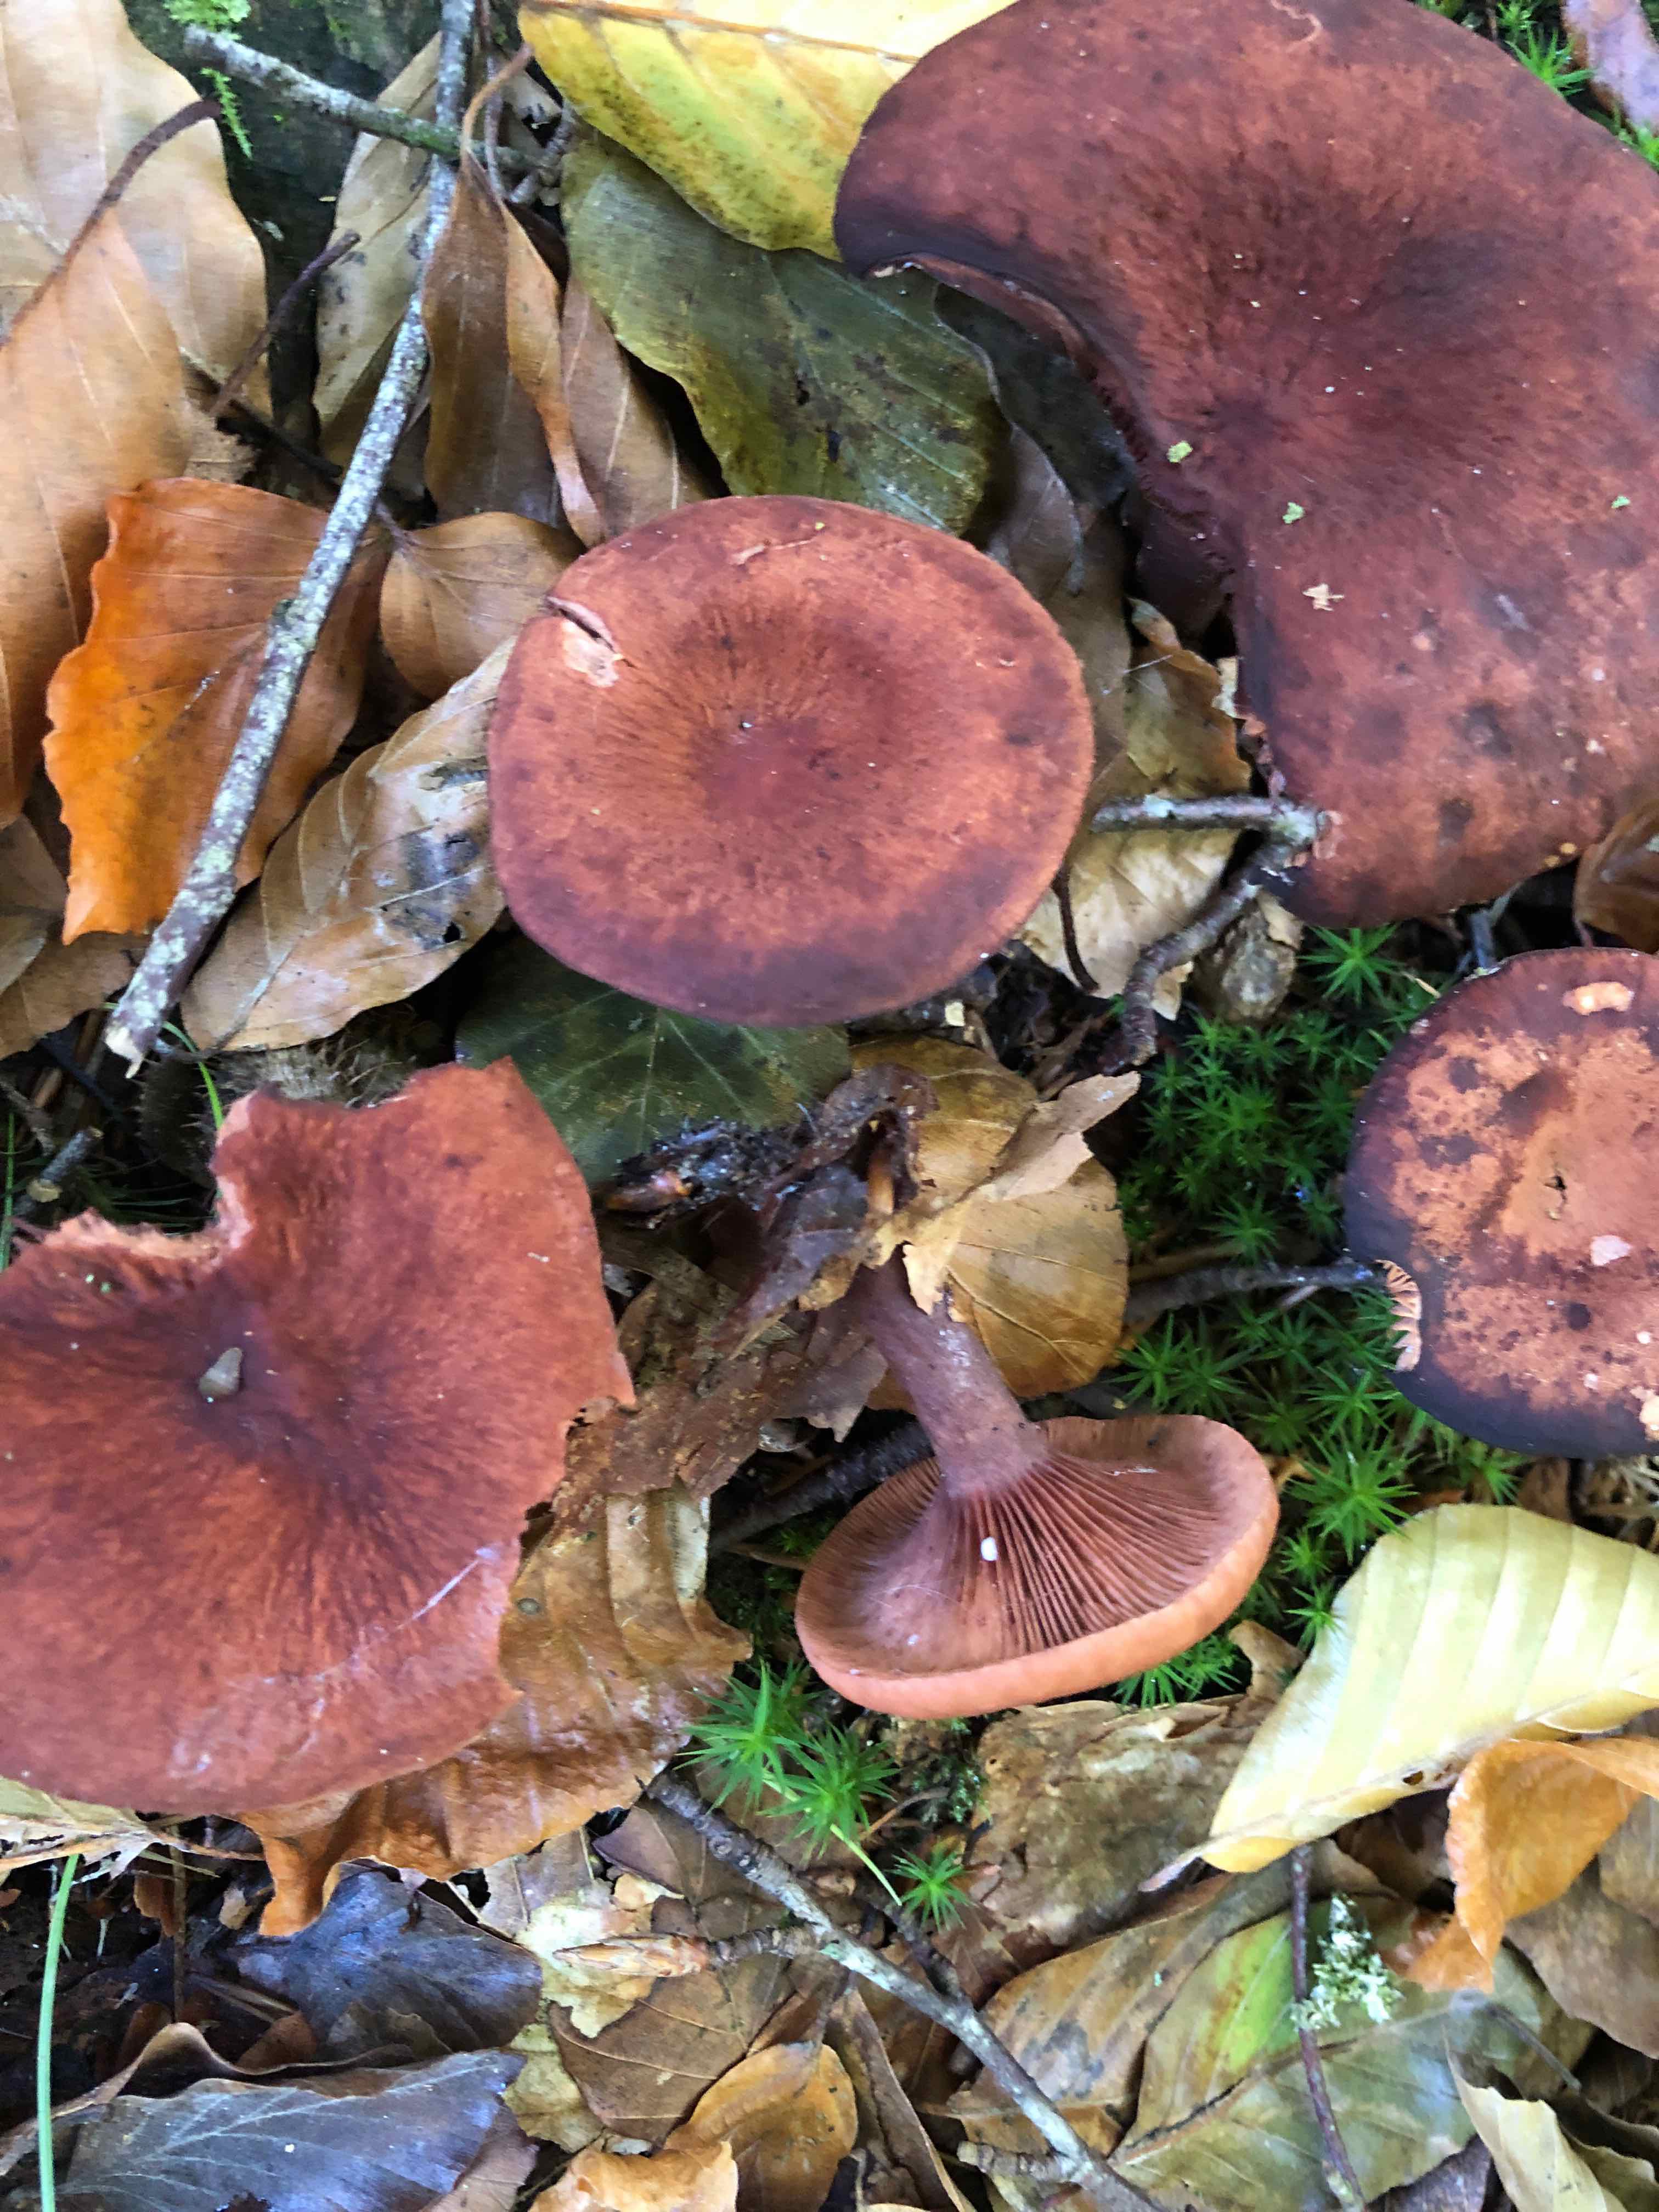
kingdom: Fungi
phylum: Basidiomycota
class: Agaricomycetes
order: Russulales
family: Russulaceae
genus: Lactarius
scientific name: Lactarius camphoratus
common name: kamfer-mælkehat
